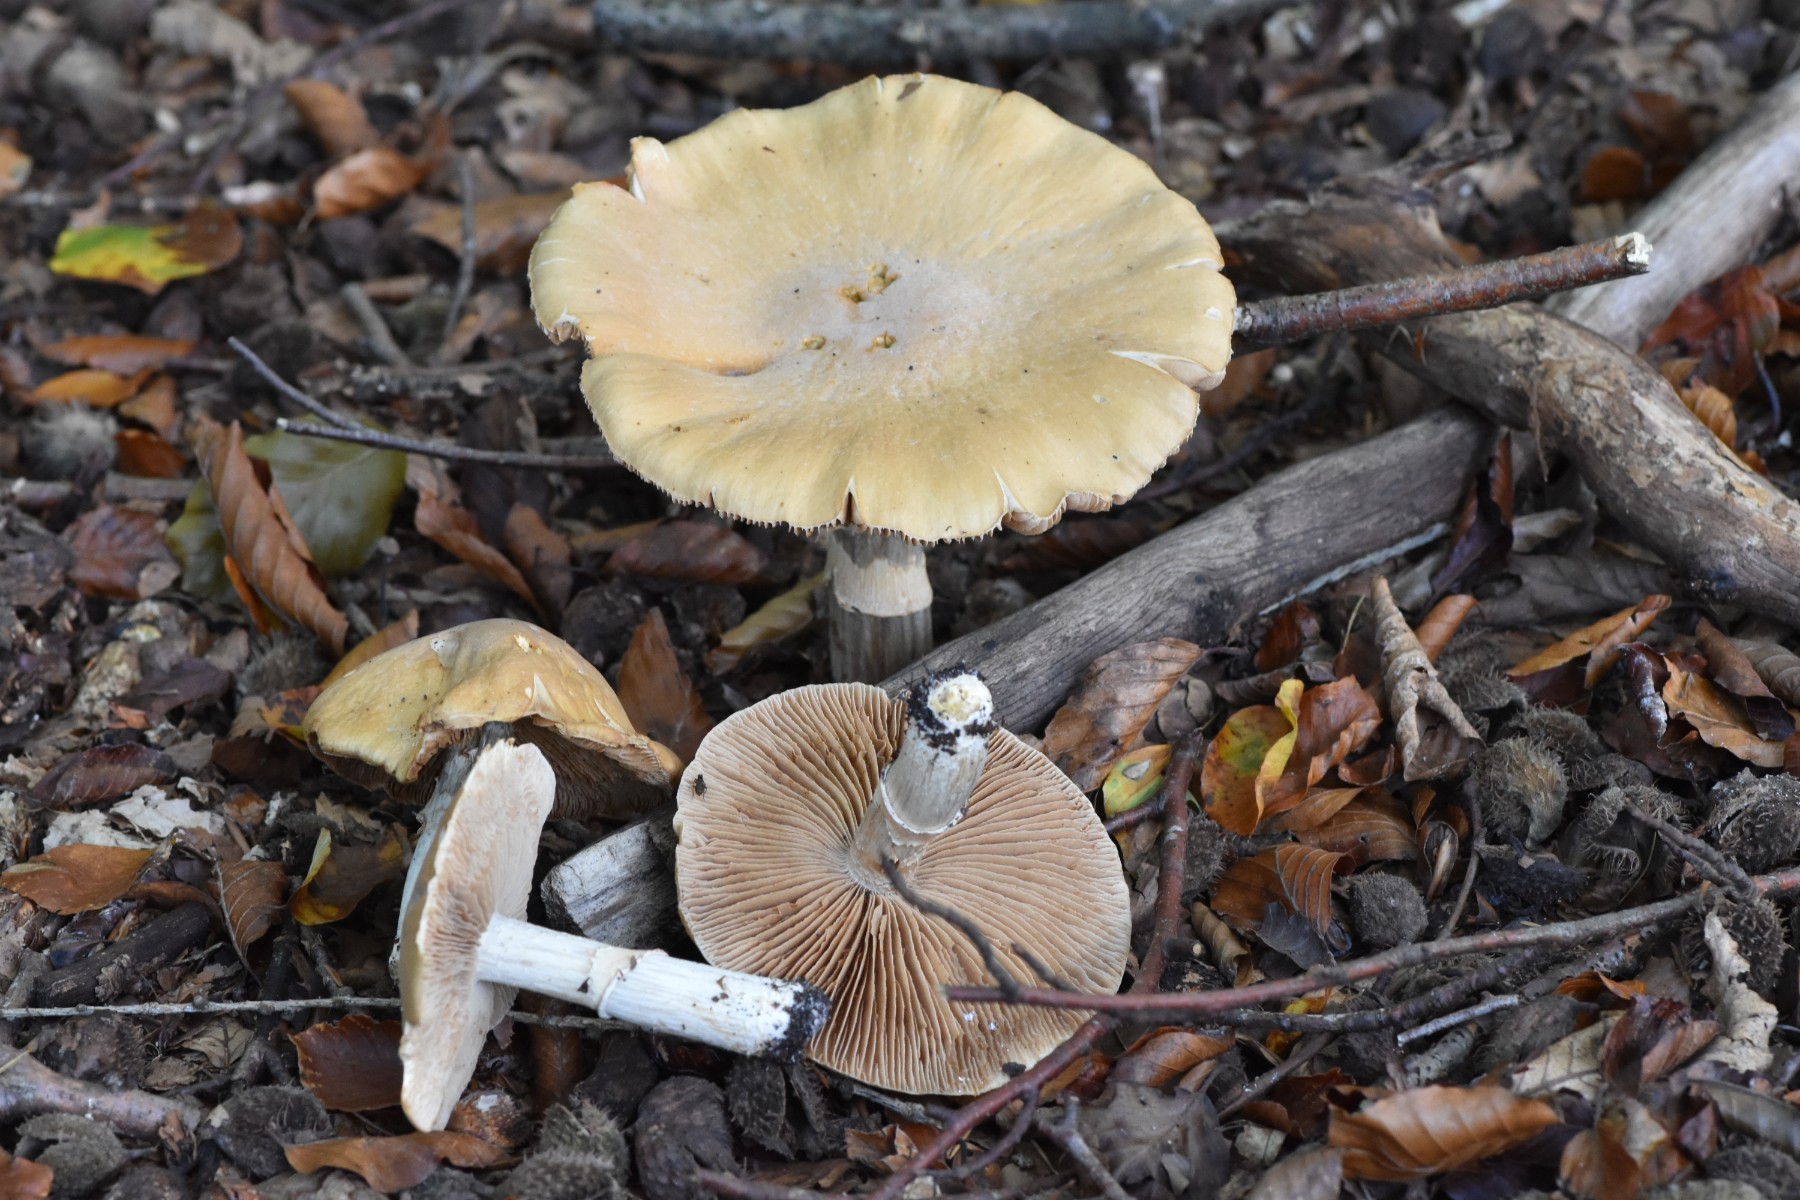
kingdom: Fungi
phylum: Basidiomycota
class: Agaricomycetes
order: Agaricales
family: Cortinariaceae
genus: Cortinarius
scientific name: Cortinarius caperatus
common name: klidhat
